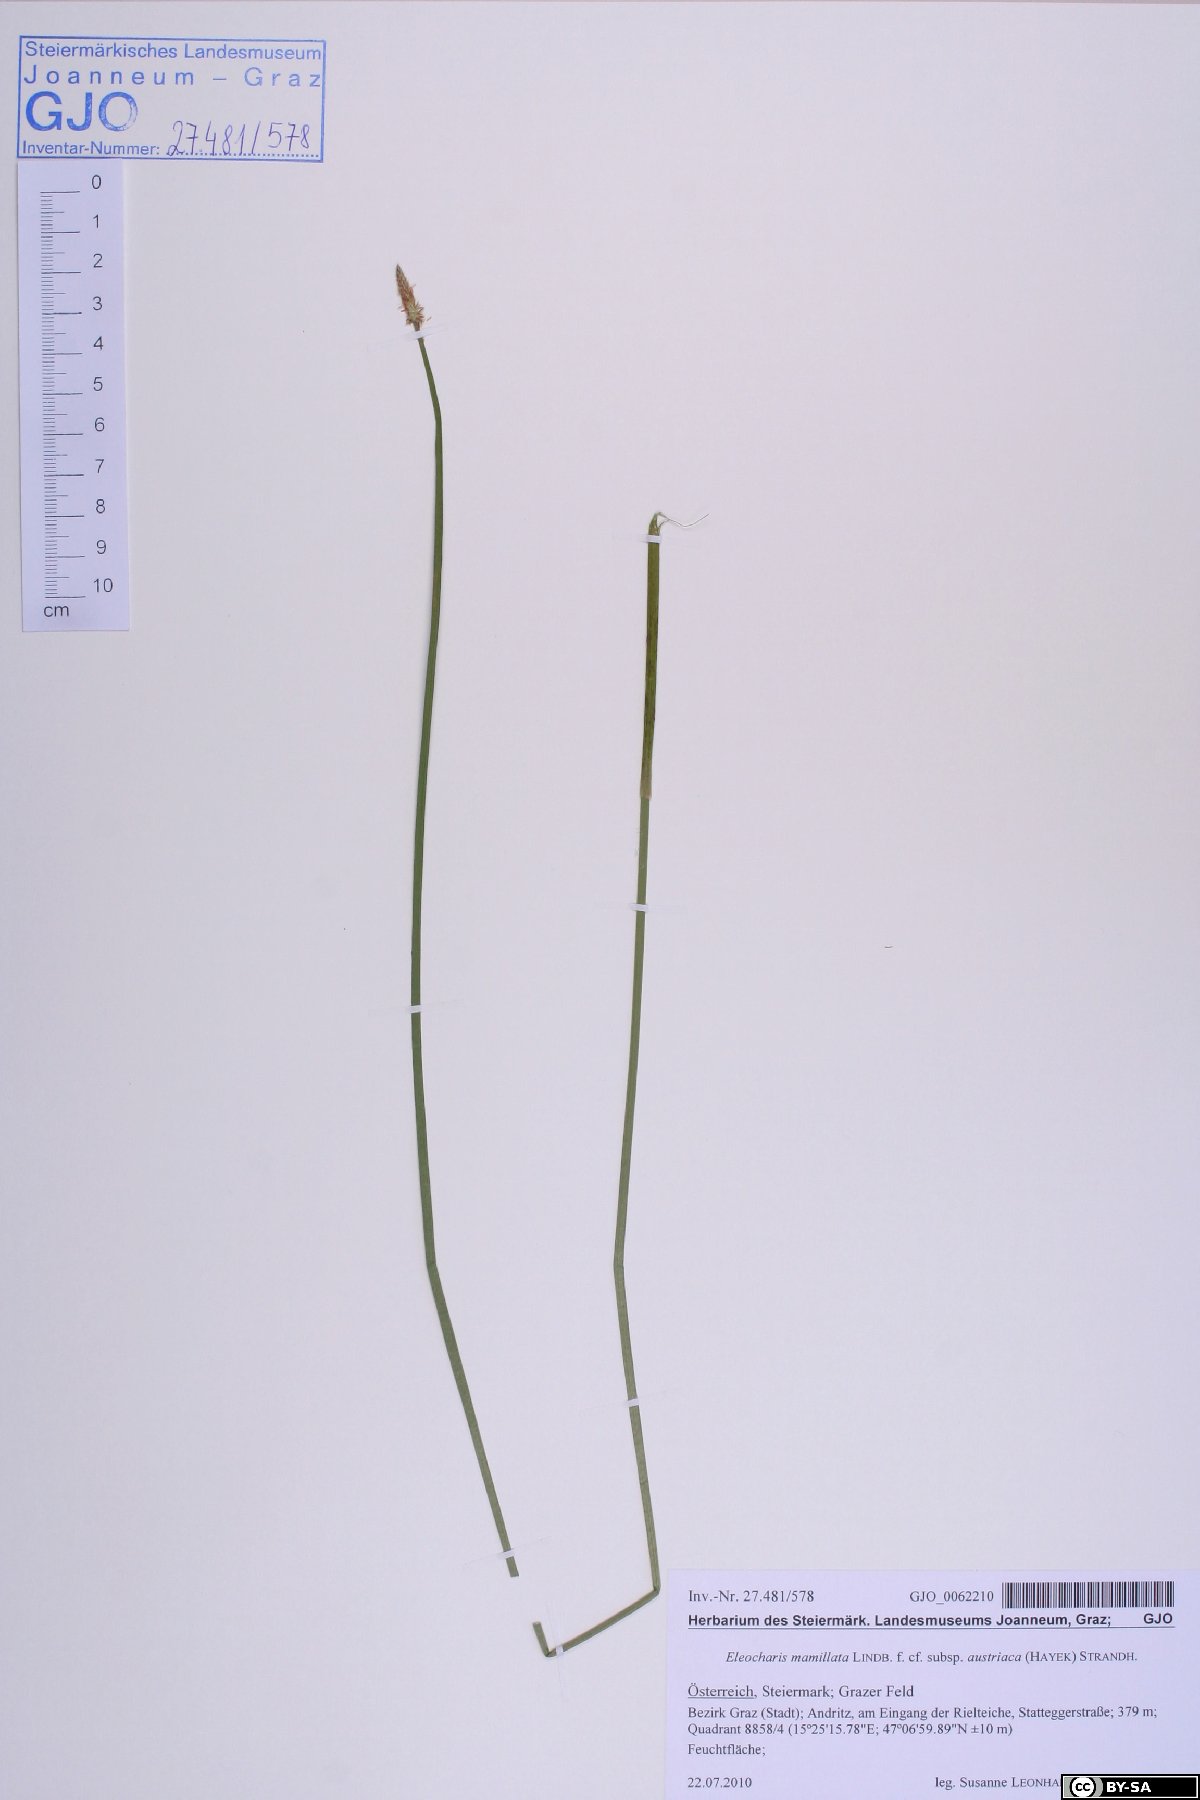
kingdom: Plantae
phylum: Tracheophyta
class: Liliopsida
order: Poales
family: Cyperaceae
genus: Eleocharis
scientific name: Eleocharis mamillata
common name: Northern spike-rush
